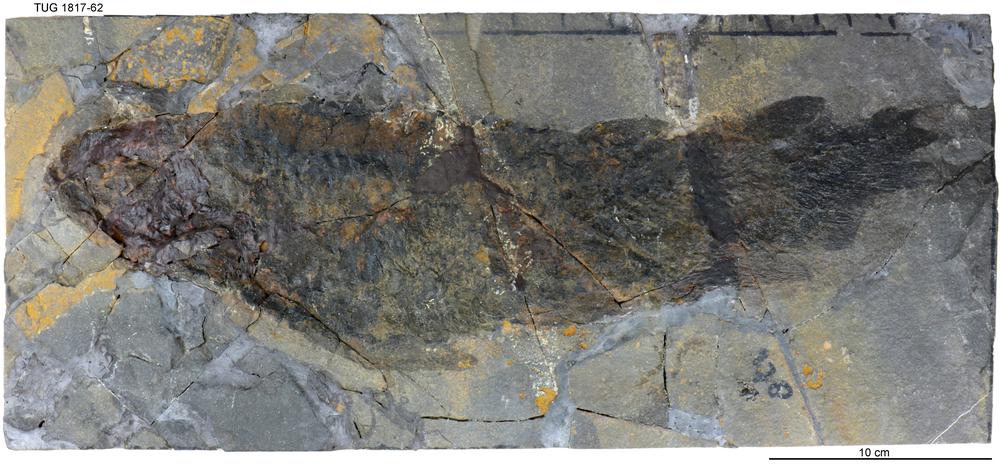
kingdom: Animalia
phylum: Chordata
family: Holoptychiidae
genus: Glyptolepis
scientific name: Glyptolepis paucidens
